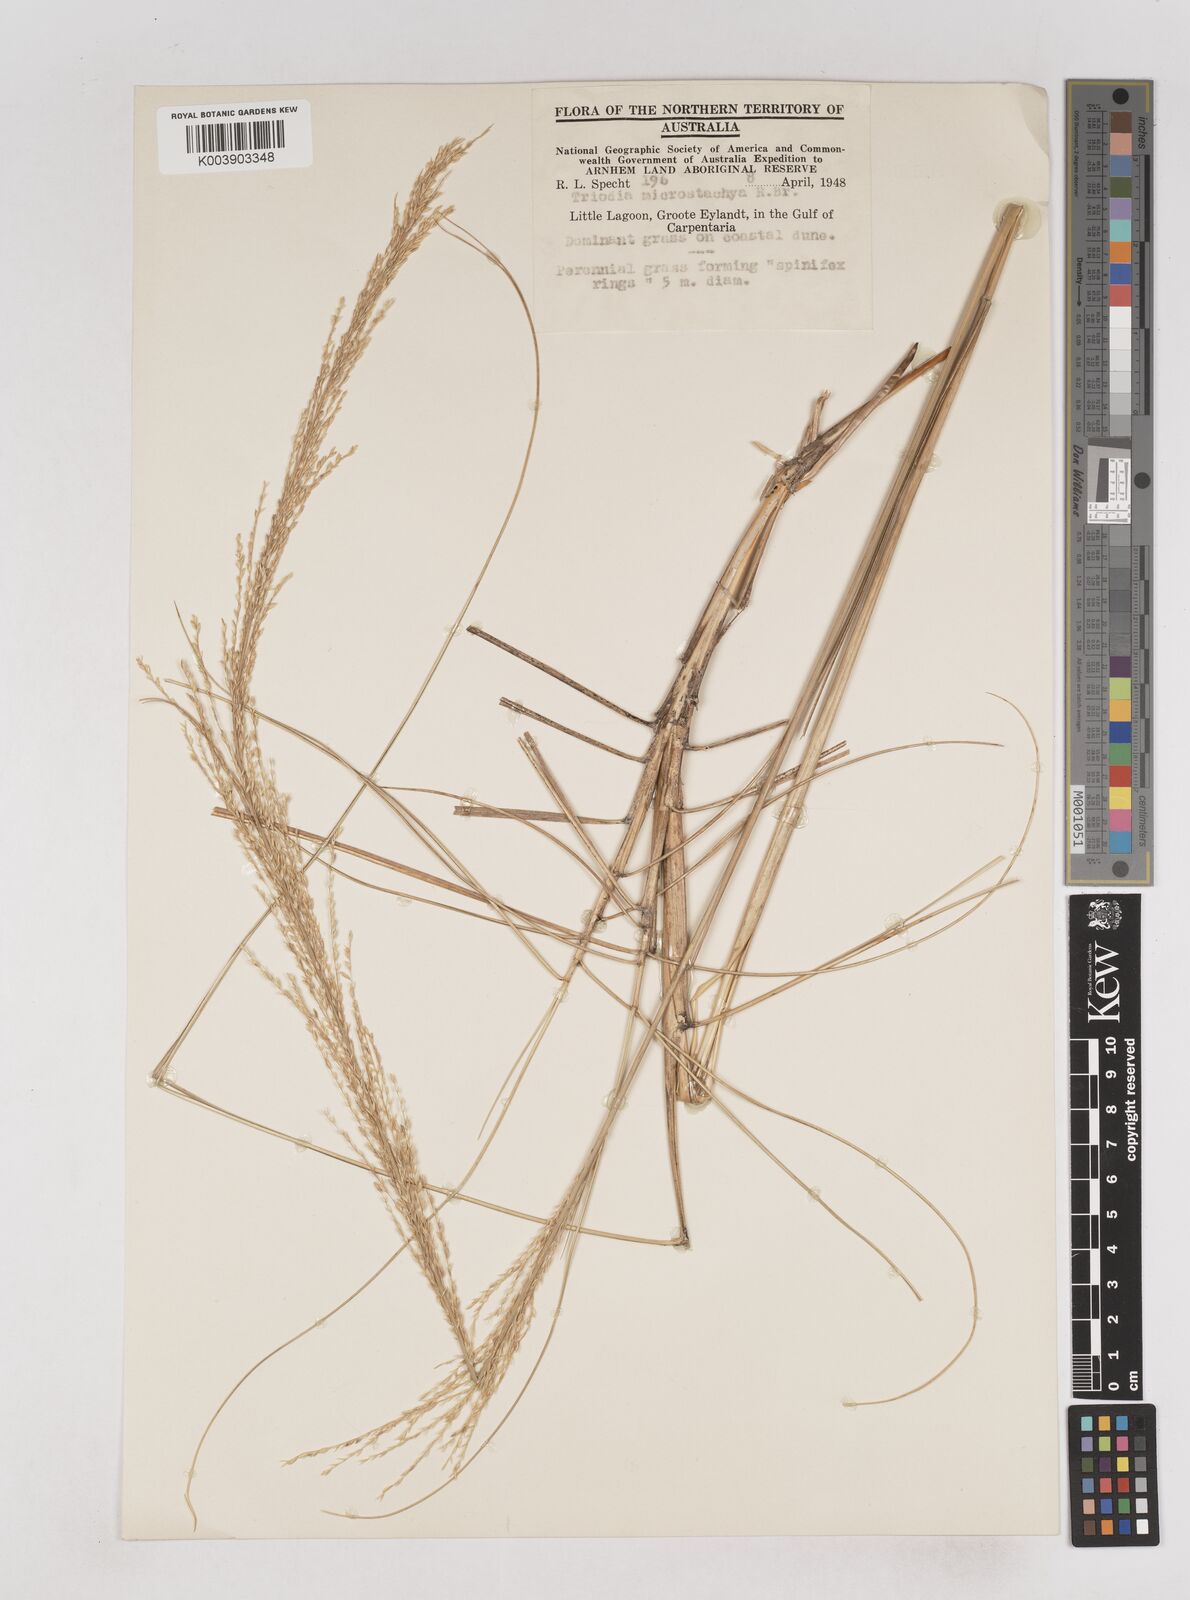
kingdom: Plantae
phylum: Tracheophyta
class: Liliopsida
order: Poales
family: Poaceae
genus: Triodia
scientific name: Triodia microstachya
